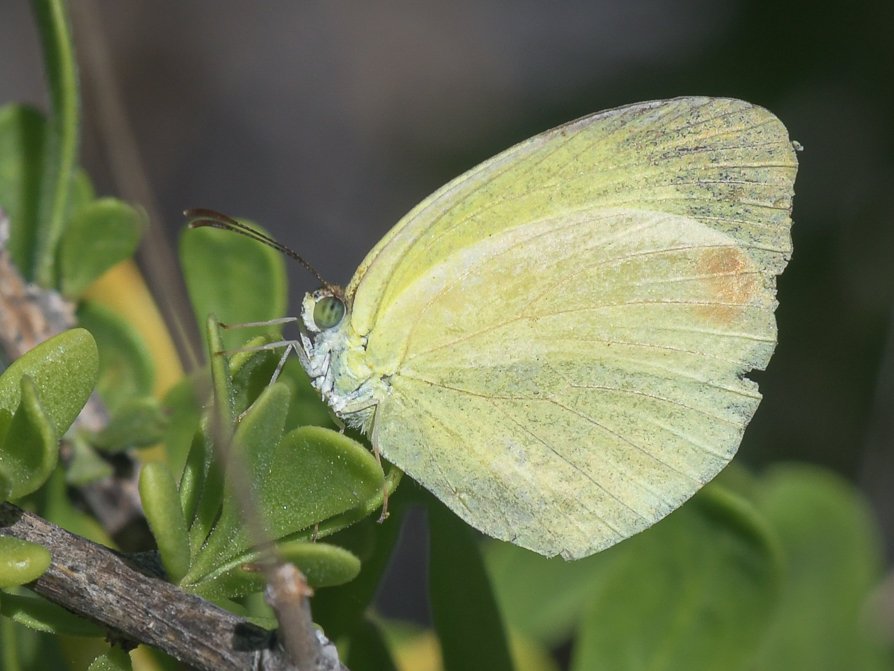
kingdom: Animalia
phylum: Arthropoda
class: Insecta
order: Lepidoptera
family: Pieridae
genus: Pyrisitia
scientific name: Pyrisitia nise
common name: Mimosa Yellow
